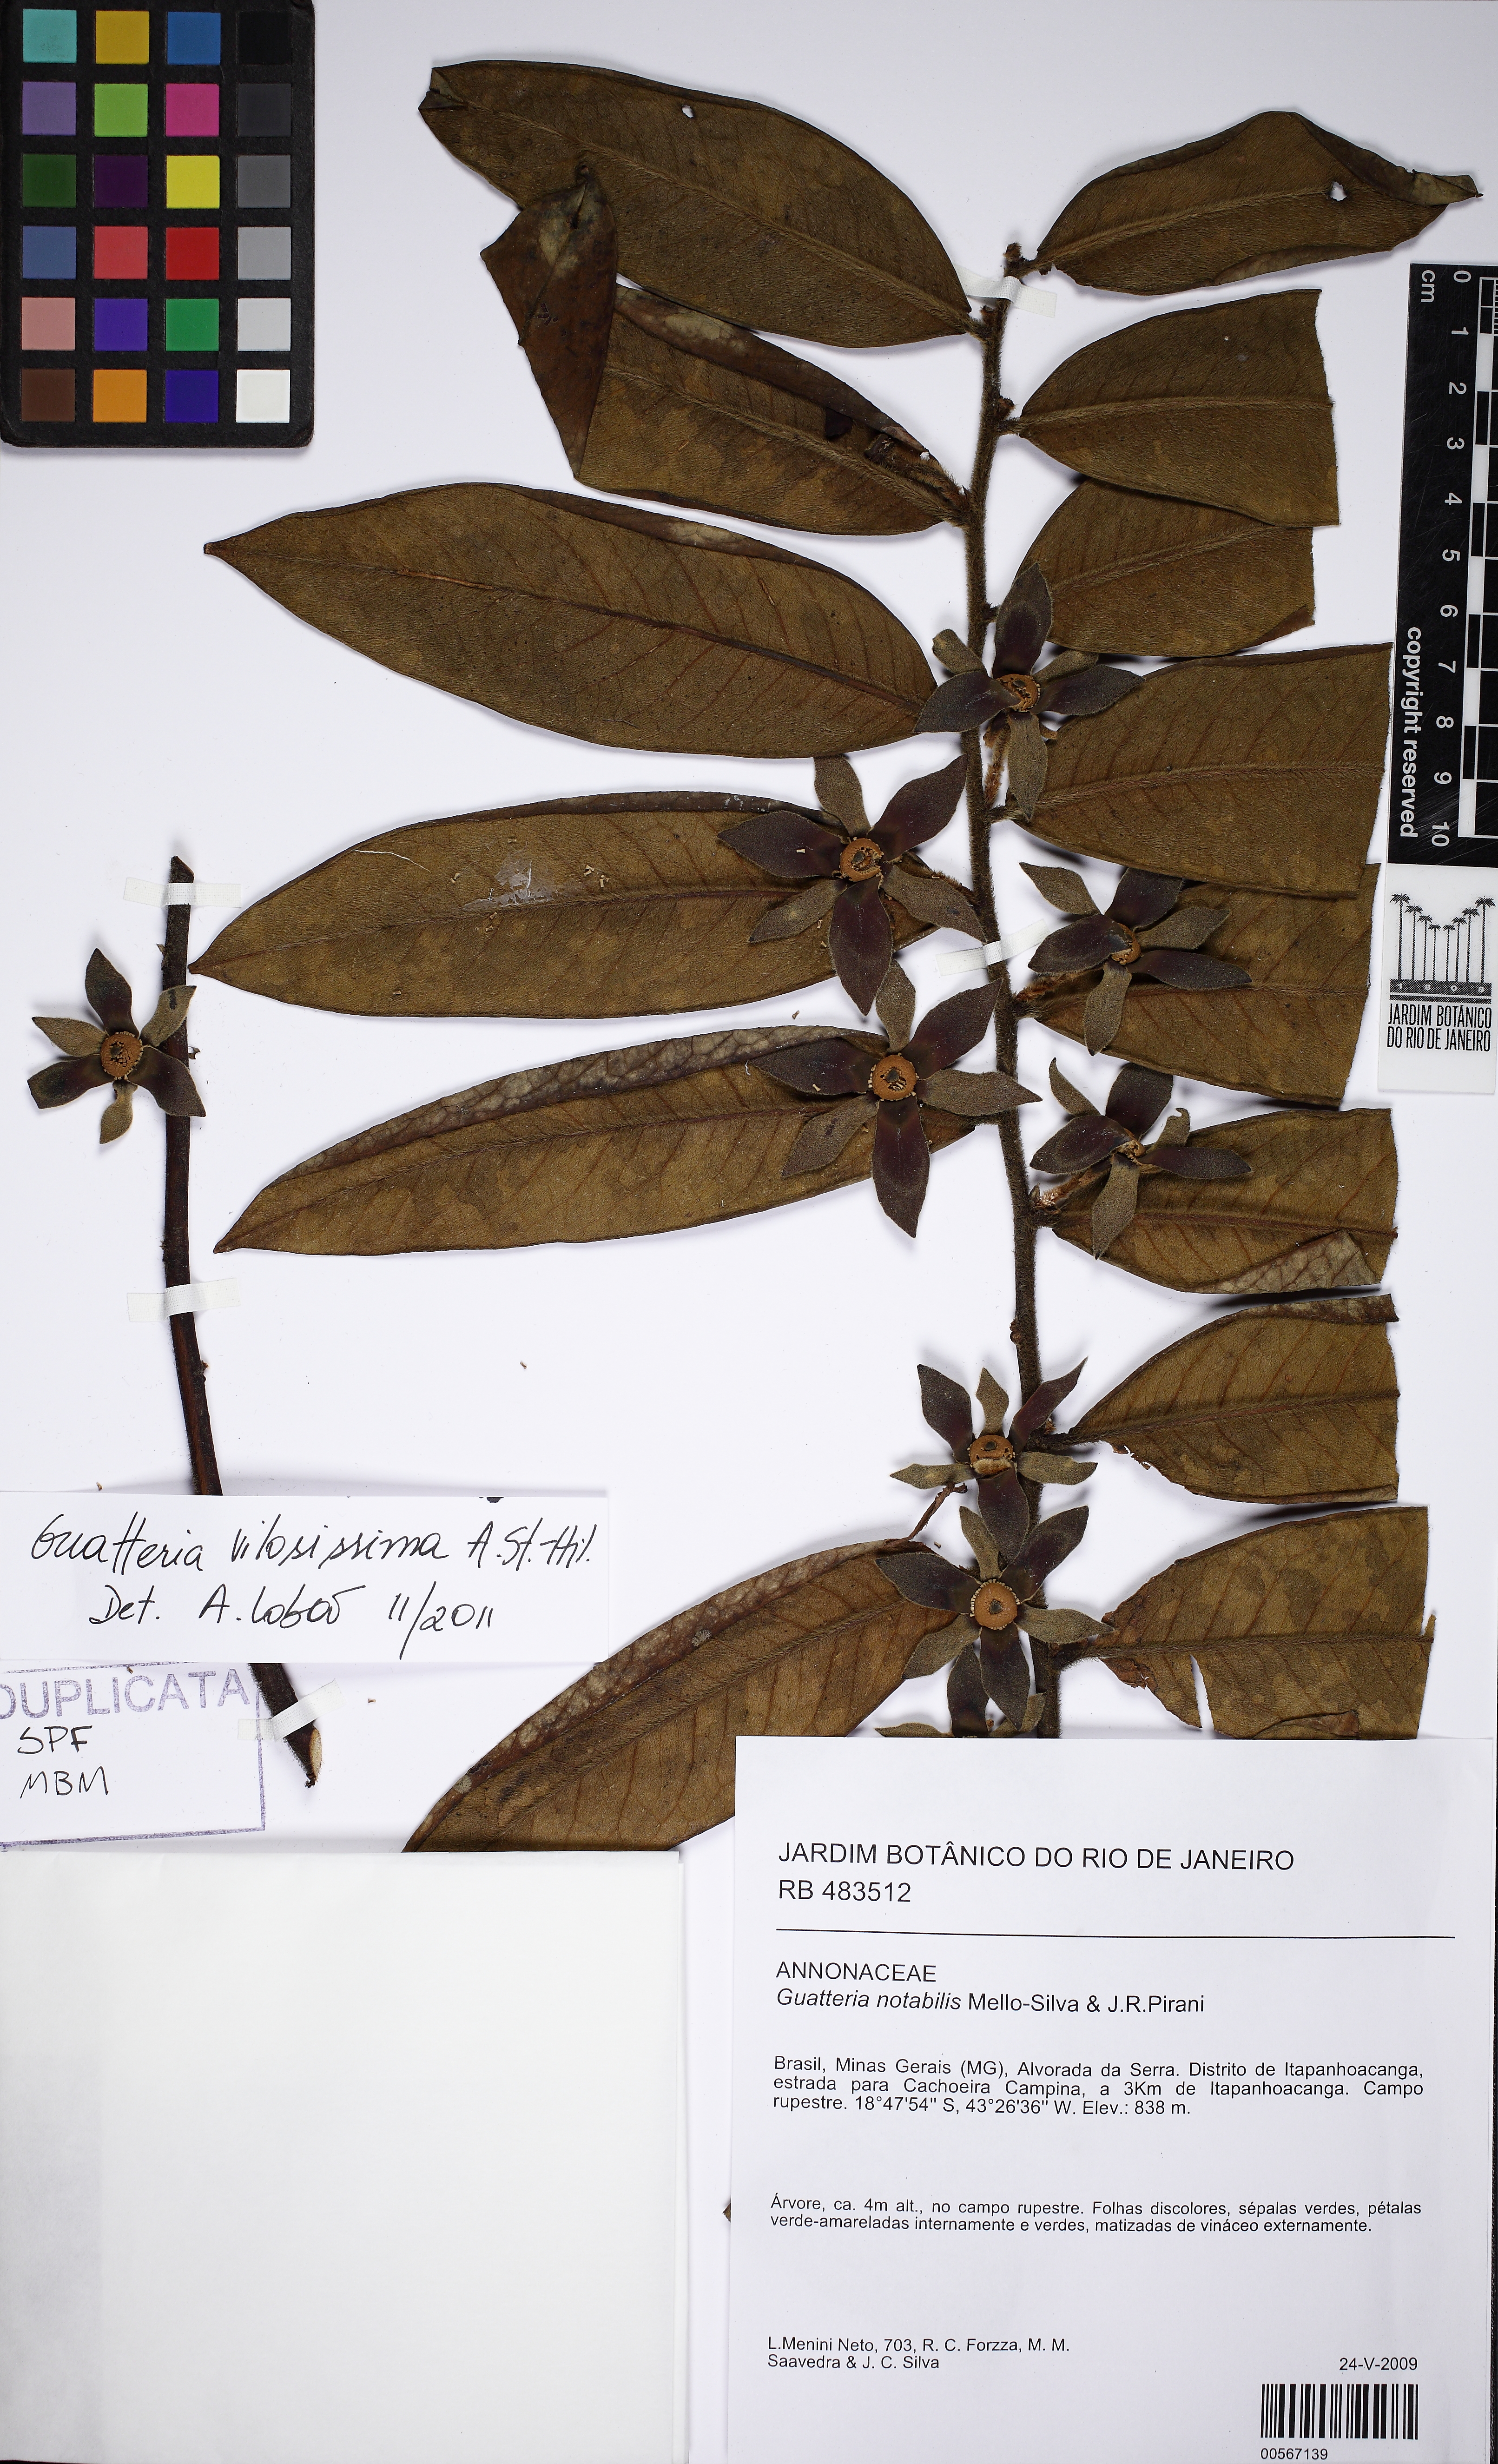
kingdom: Plantae
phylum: Tracheophyta
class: Magnoliopsida
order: Magnoliales
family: Annonaceae
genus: Guatteria
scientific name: Guatteria villosissima
